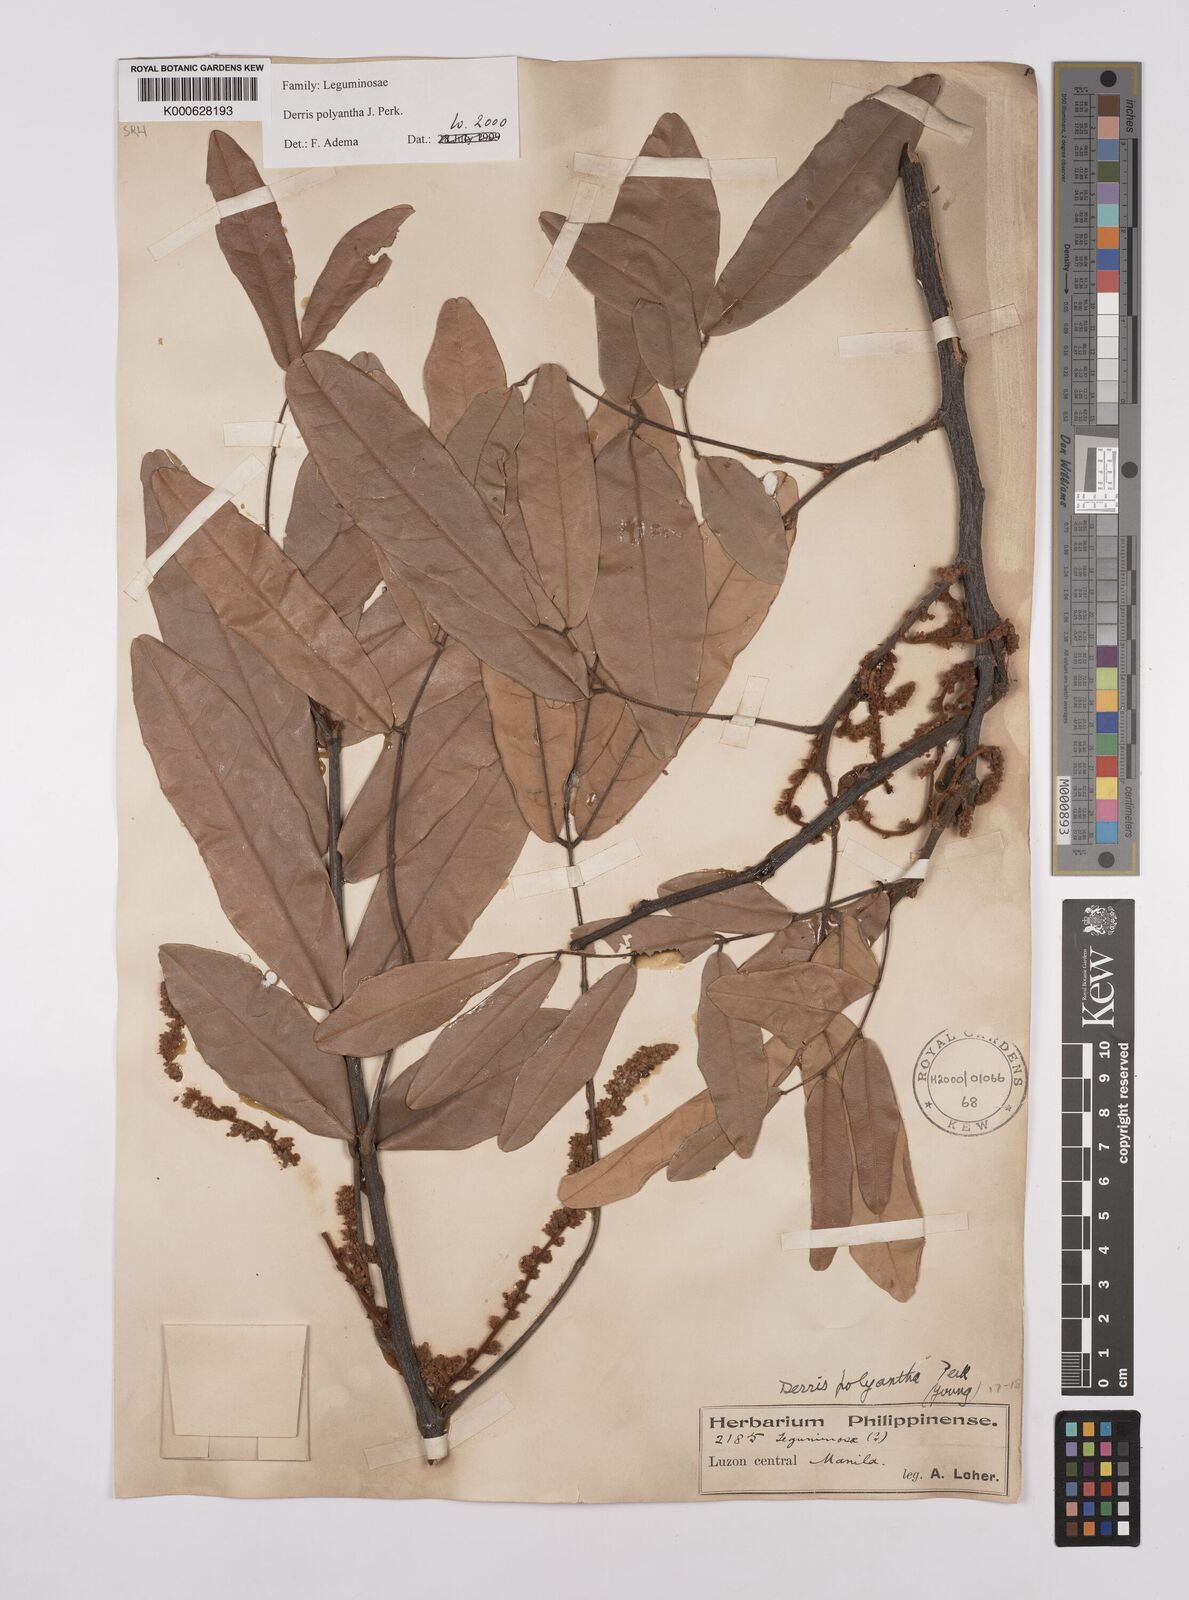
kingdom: Plantae
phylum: Tracheophyta
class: Magnoliopsida
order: Fabales
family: Fabaceae
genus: Derris
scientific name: Derris polyantha
